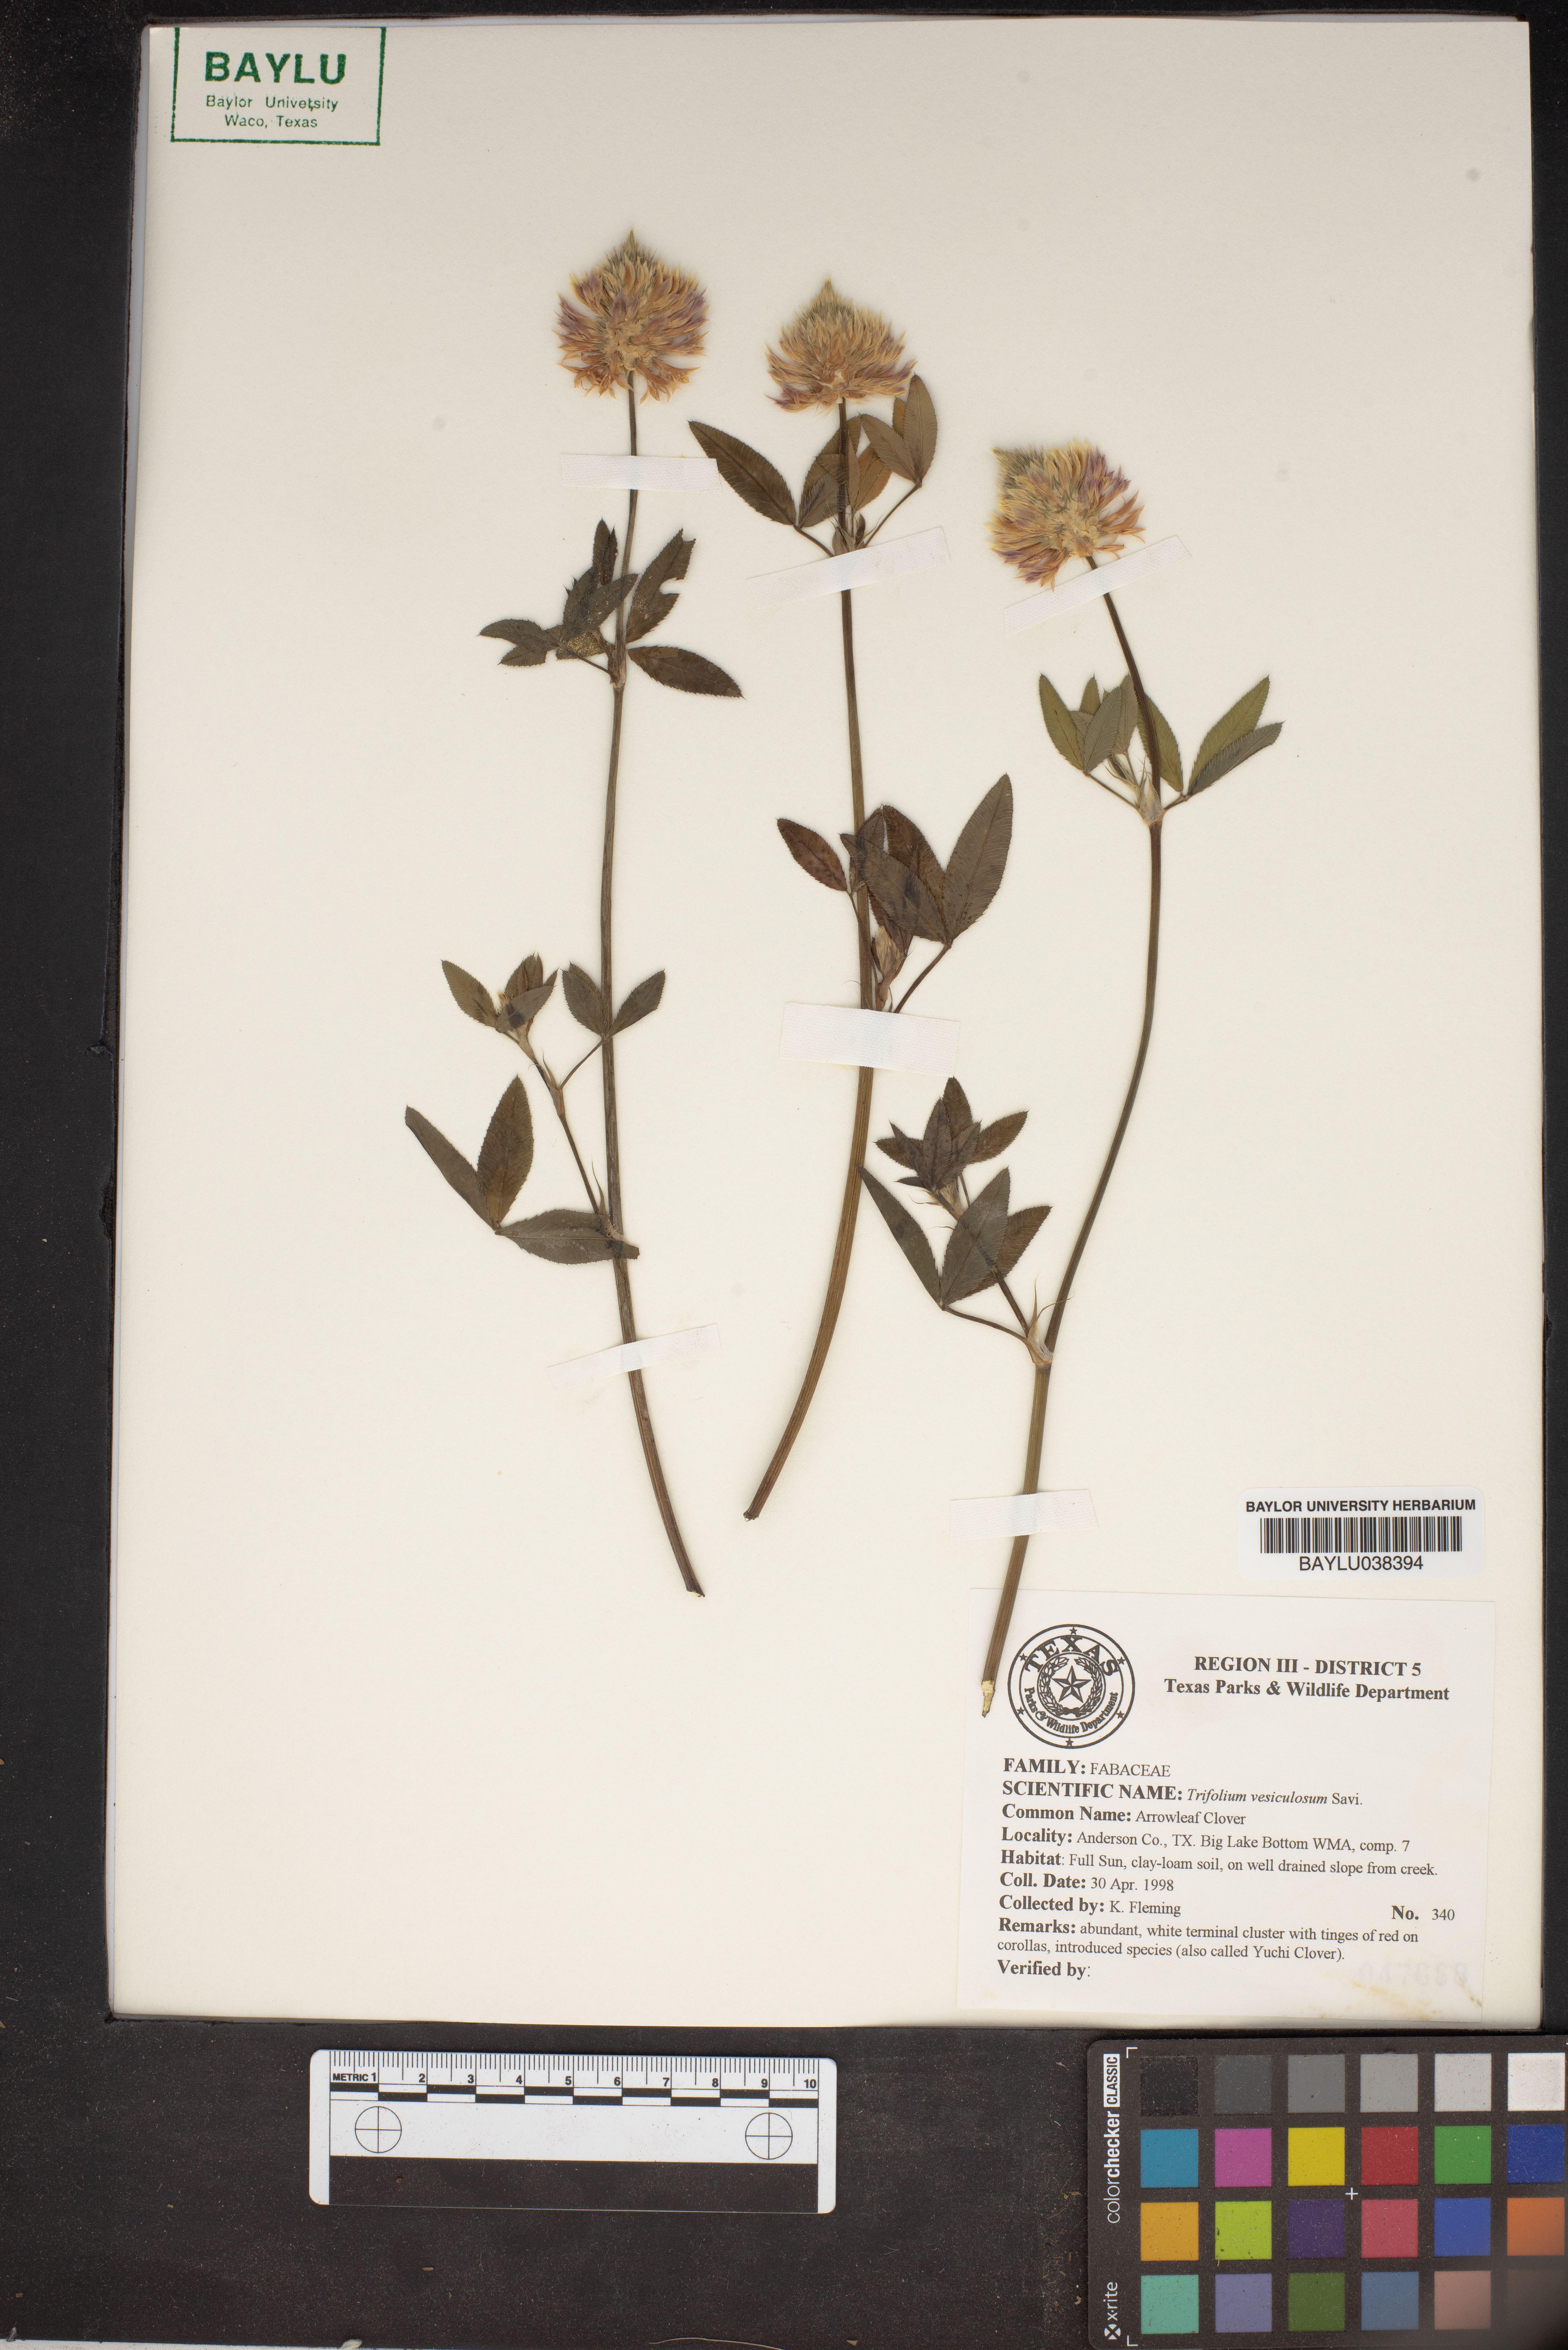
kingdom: Plantae
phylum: Tracheophyta
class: Magnoliopsida
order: Fabales
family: Fabaceae
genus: Trifolium
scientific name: Trifolium vesiculosum
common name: Arrowleaf clover
